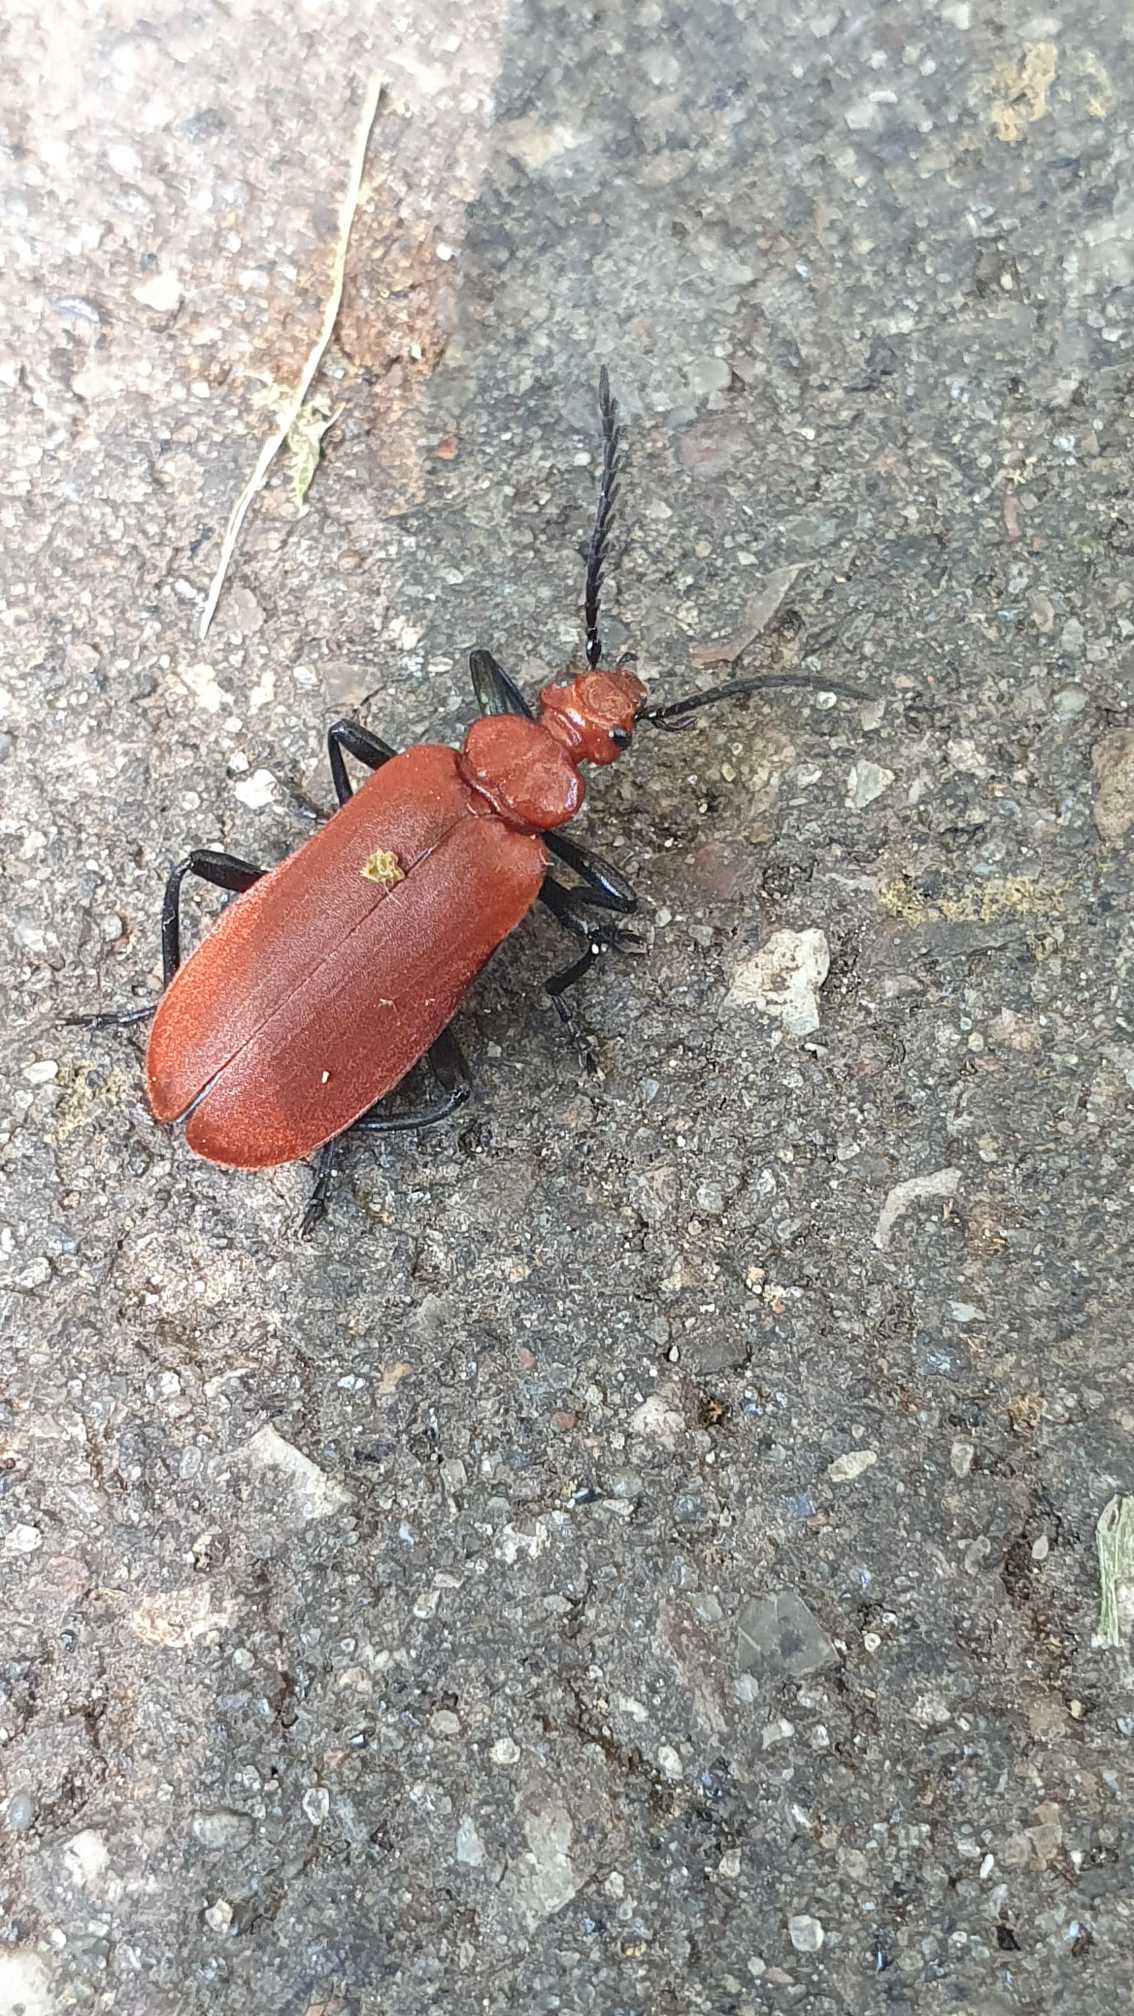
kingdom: Animalia
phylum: Arthropoda
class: Insecta
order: Coleoptera
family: Pyrochroidae
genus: Pyrochroa
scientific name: Pyrochroa serraticornis
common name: Rødhovedet kardinalbille
